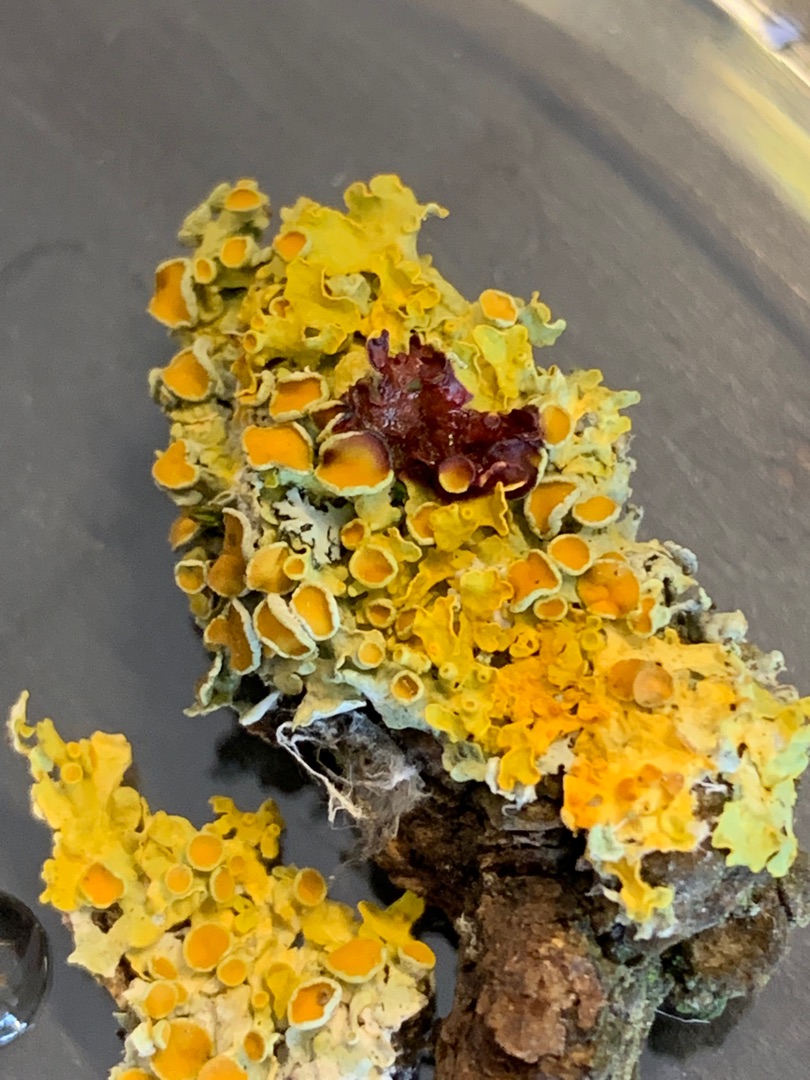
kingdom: Fungi
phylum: Ascomycota
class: Lecanoromycetes
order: Teloschistales
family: Teloschistaceae
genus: Xanthoria
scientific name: Xanthoria parietina
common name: Almindelig væggelav
